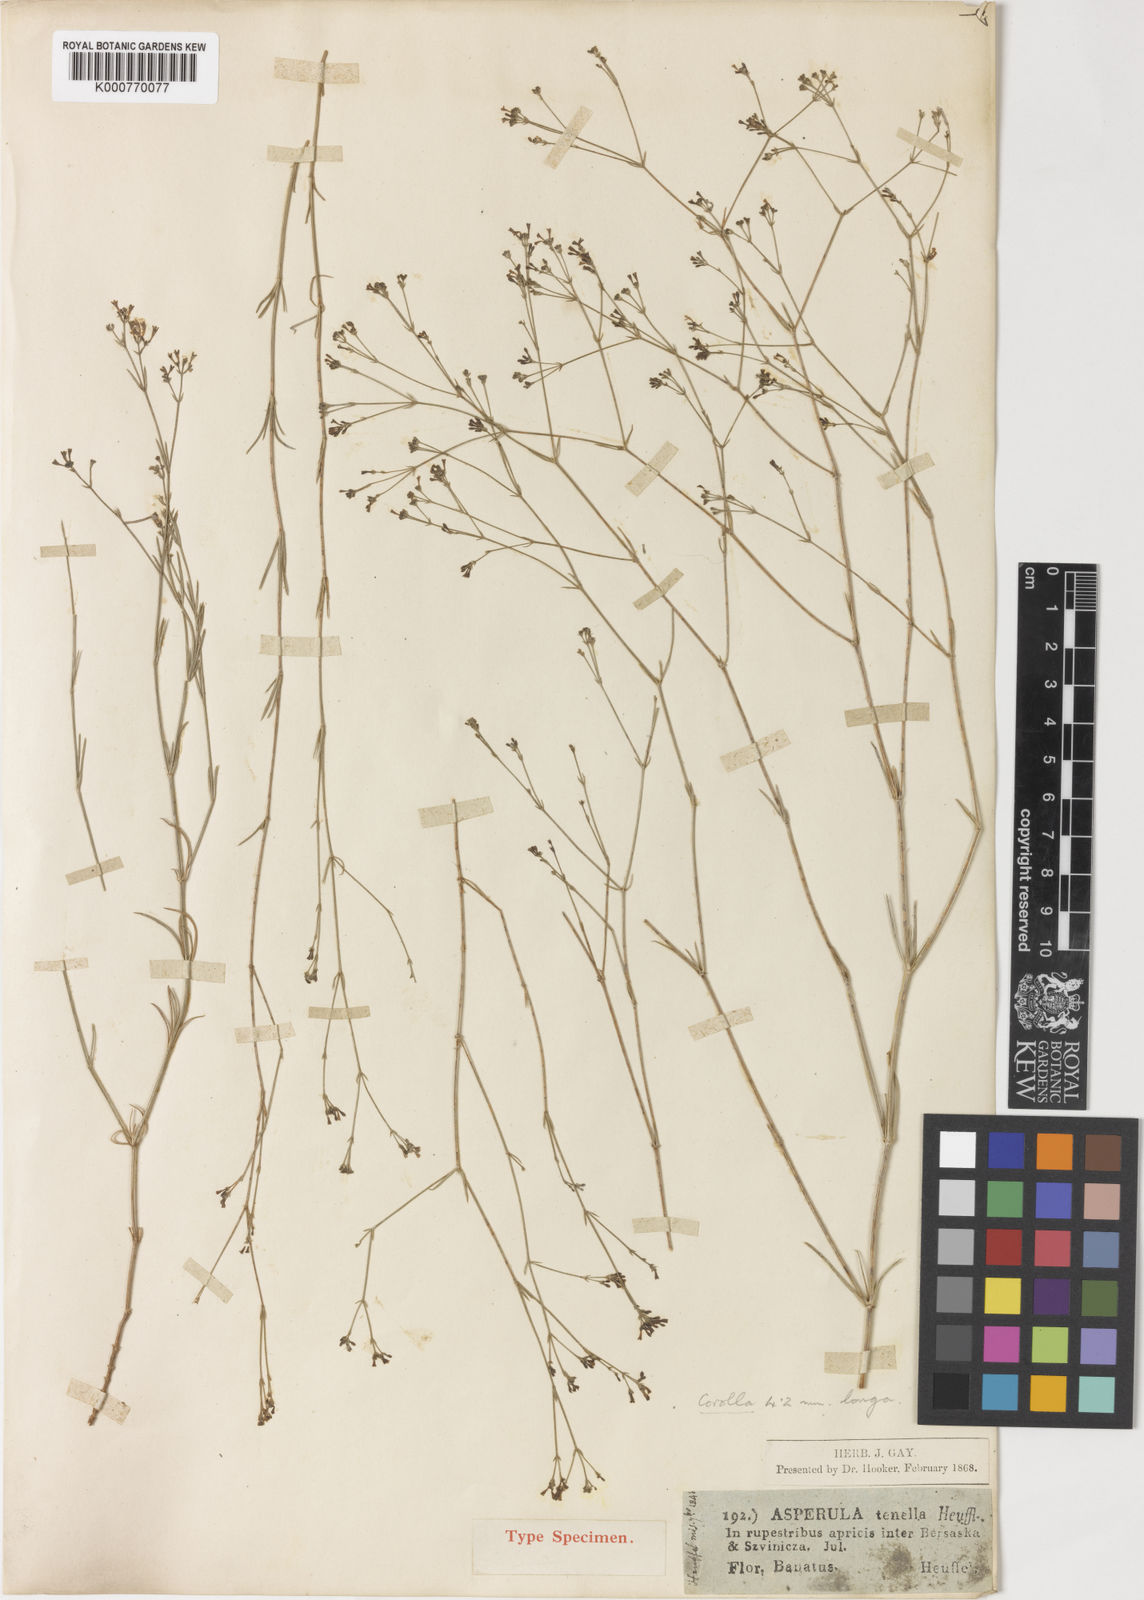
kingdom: Plantae
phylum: Tracheophyta
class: Magnoliopsida
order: Gentianales
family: Rubiaceae
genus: Cynanchica
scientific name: Cynanchica tenella
